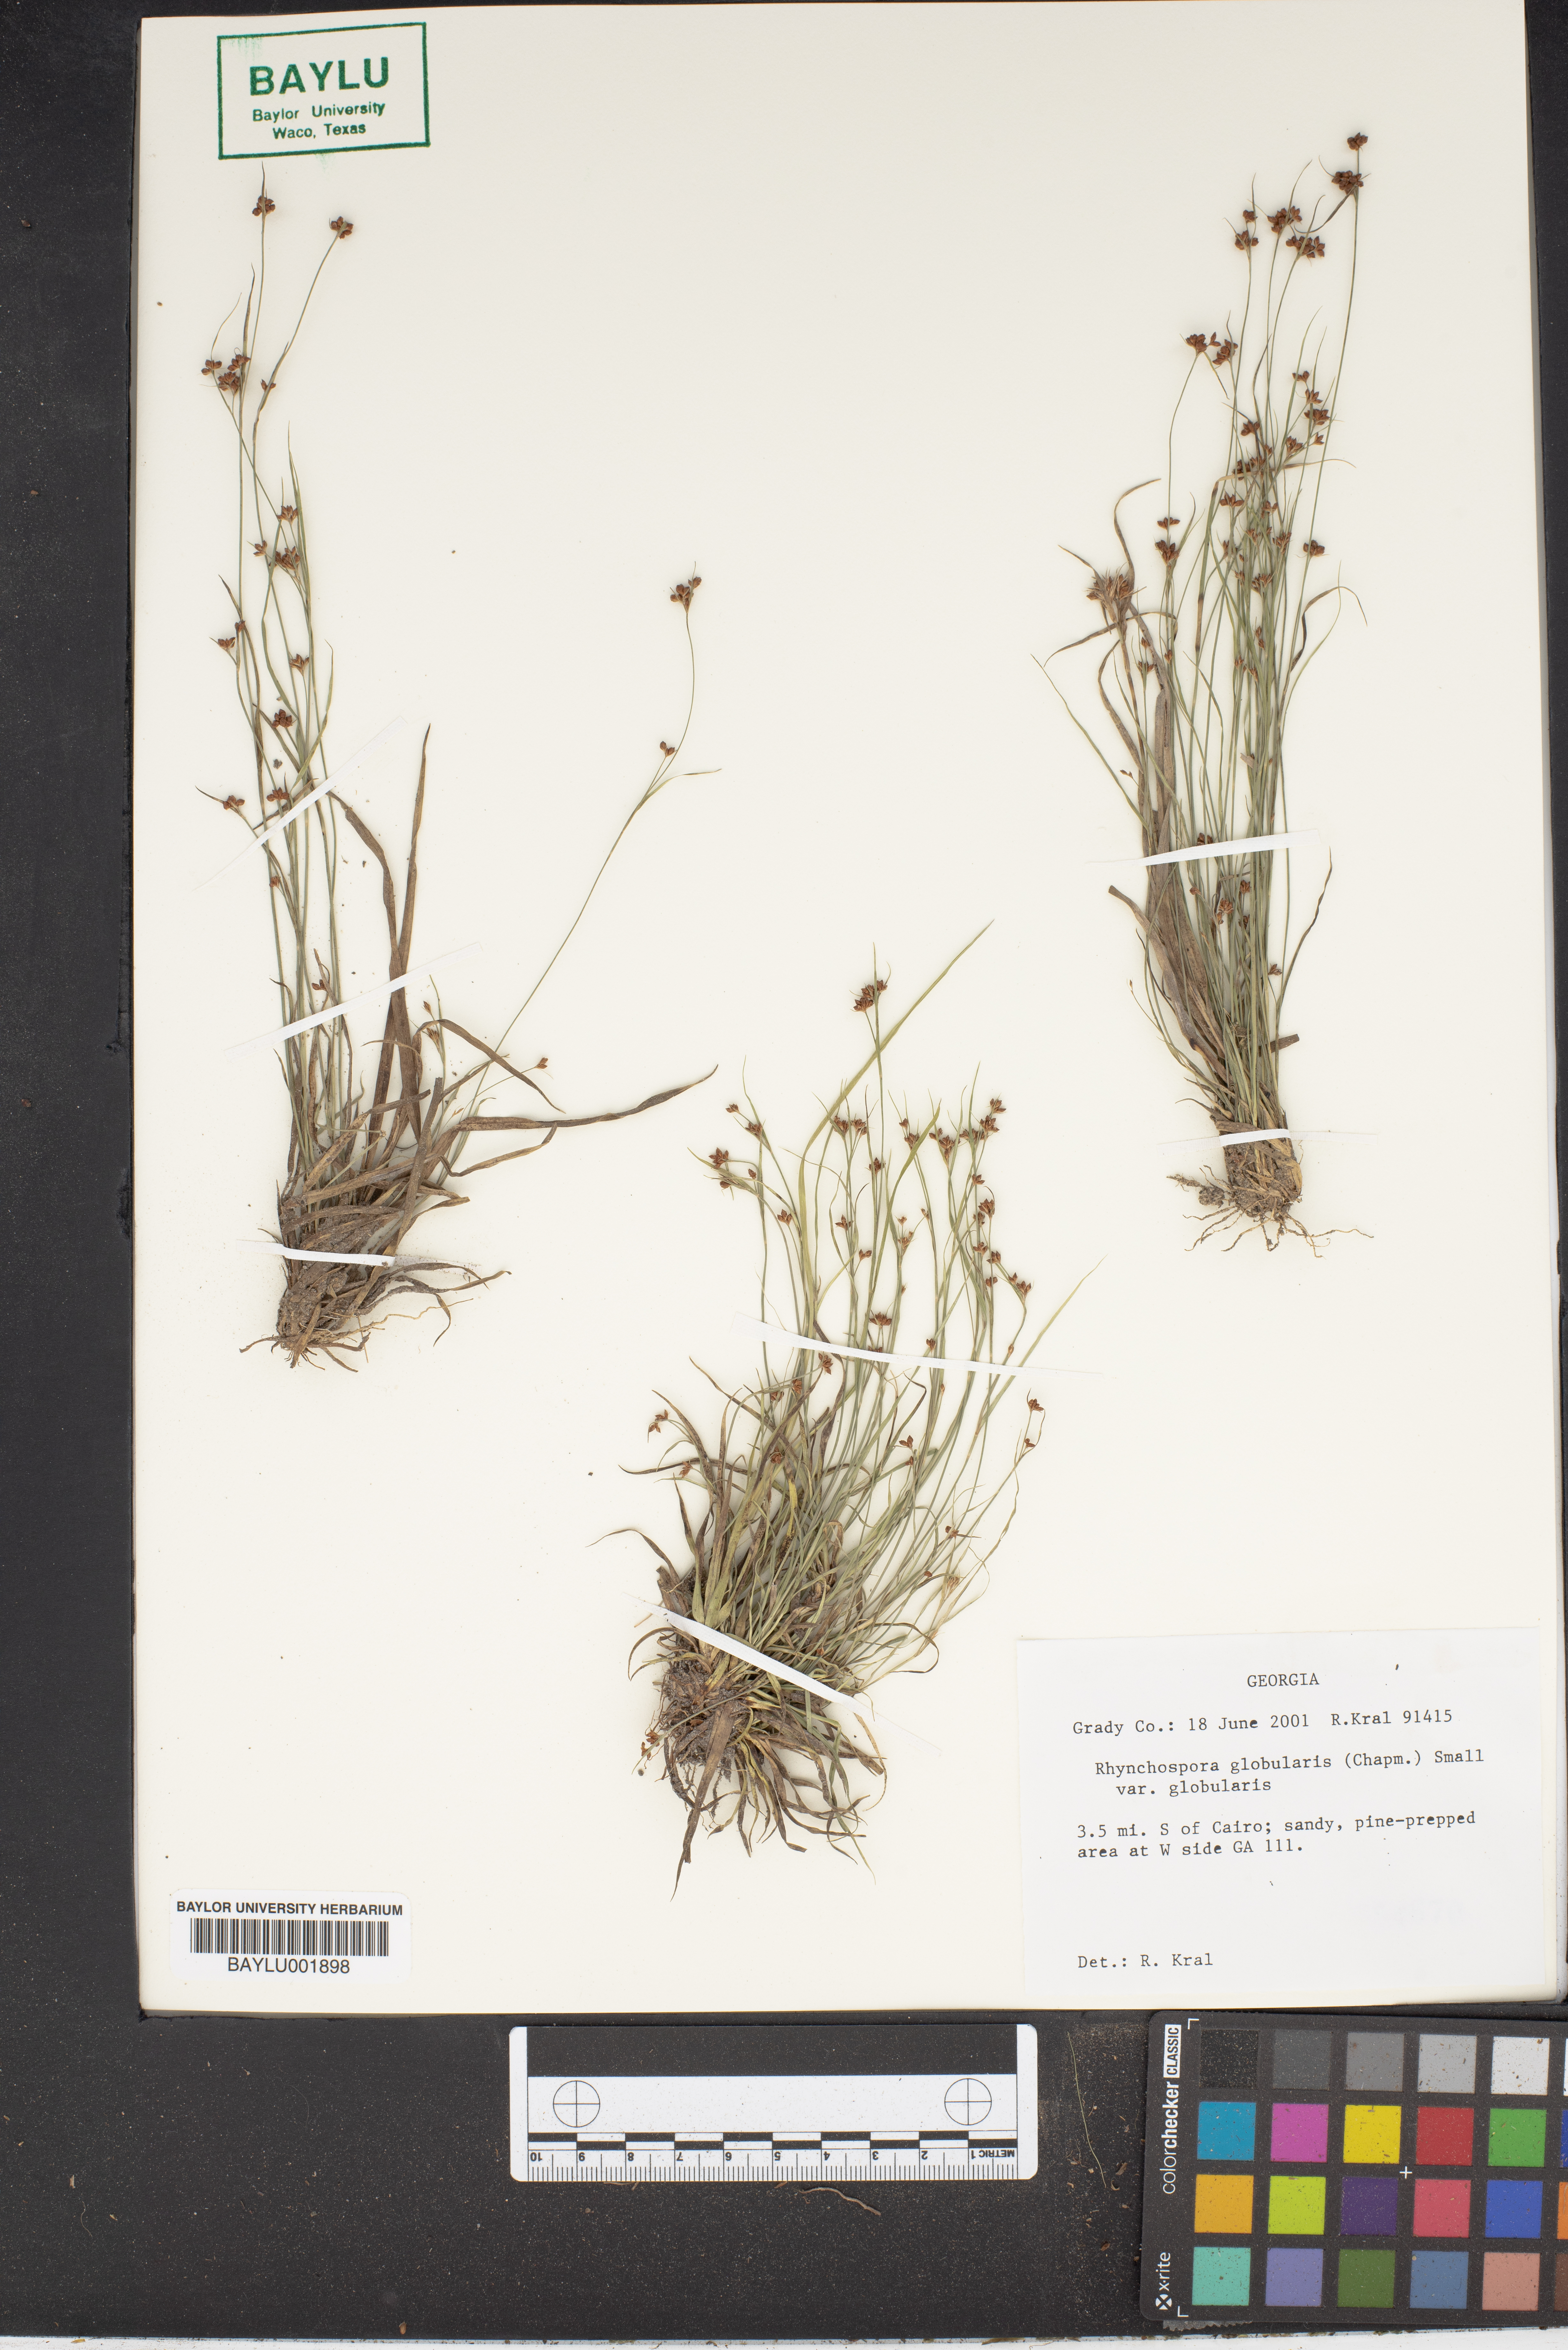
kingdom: Plantae
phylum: Tracheophyta
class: Liliopsida
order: Poales
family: Cyperaceae
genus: Rhynchospora
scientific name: Rhynchospora globularis
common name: Globe beaksedge
